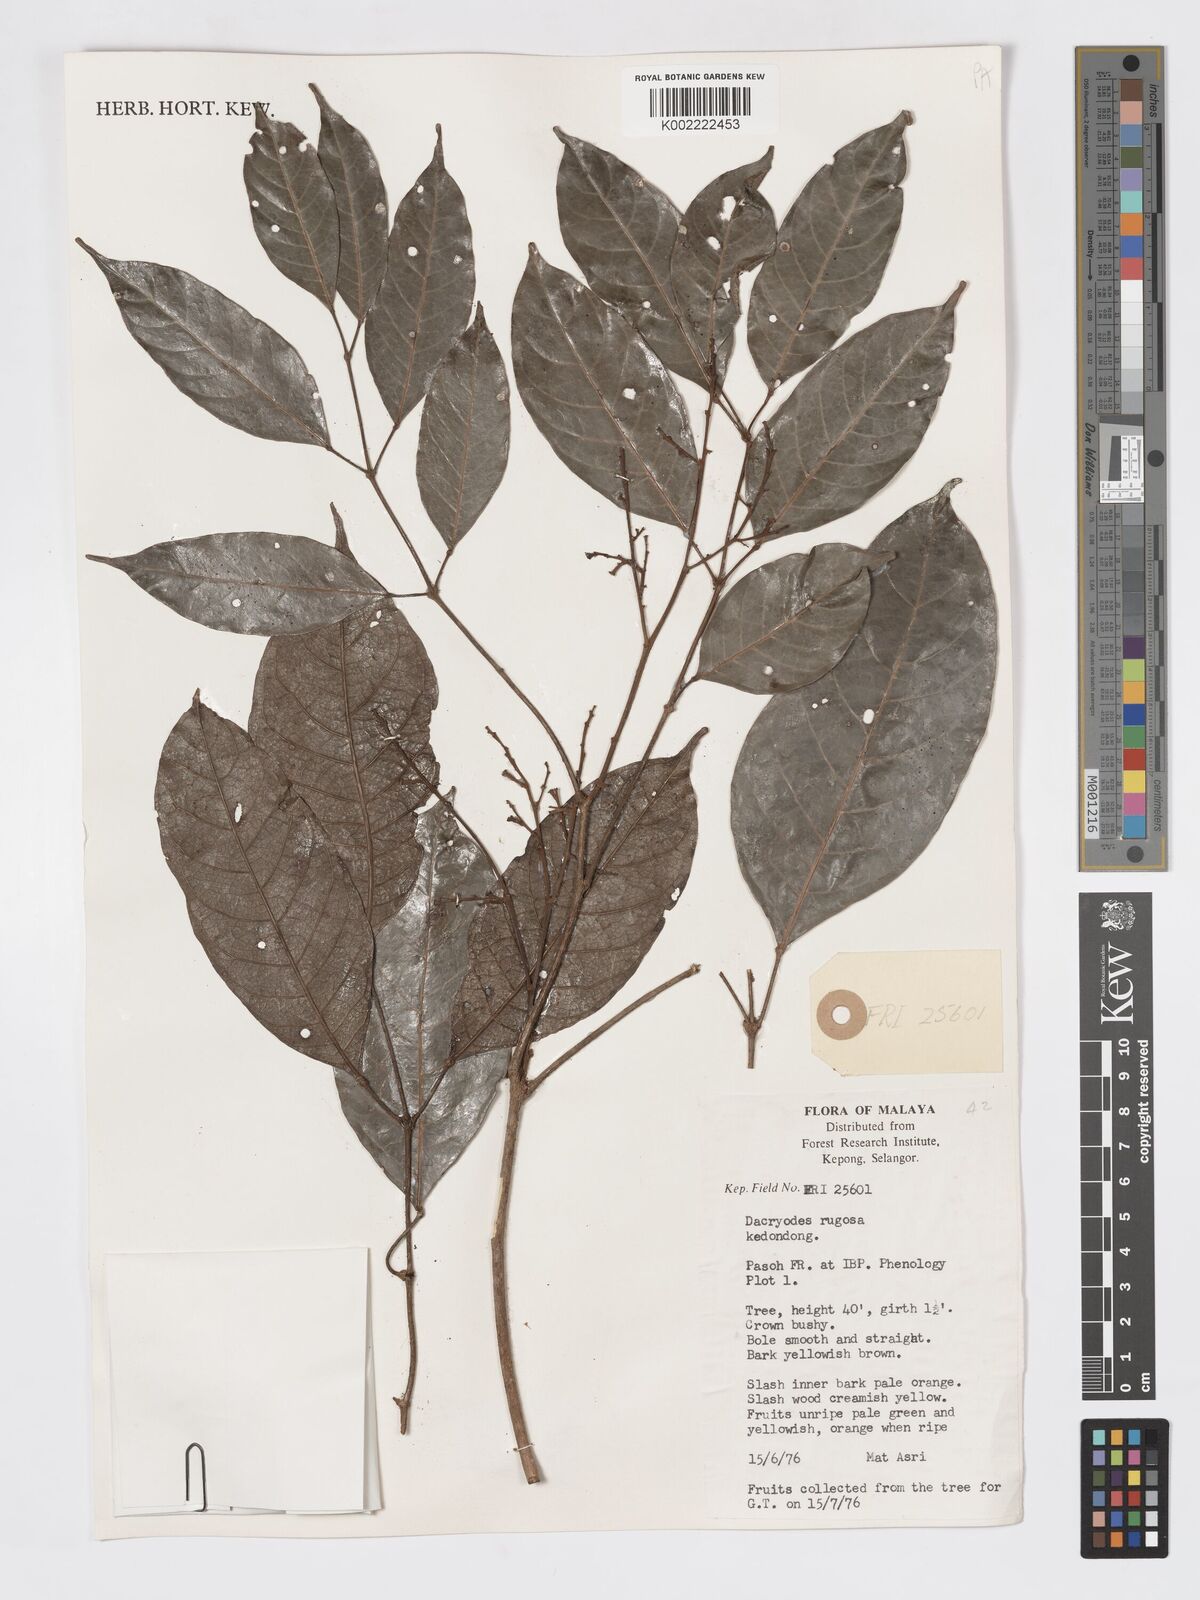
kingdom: Plantae
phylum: Tracheophyta
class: Magnoliopsida
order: Sapindales
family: Burseraceae
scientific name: Burseraceae
